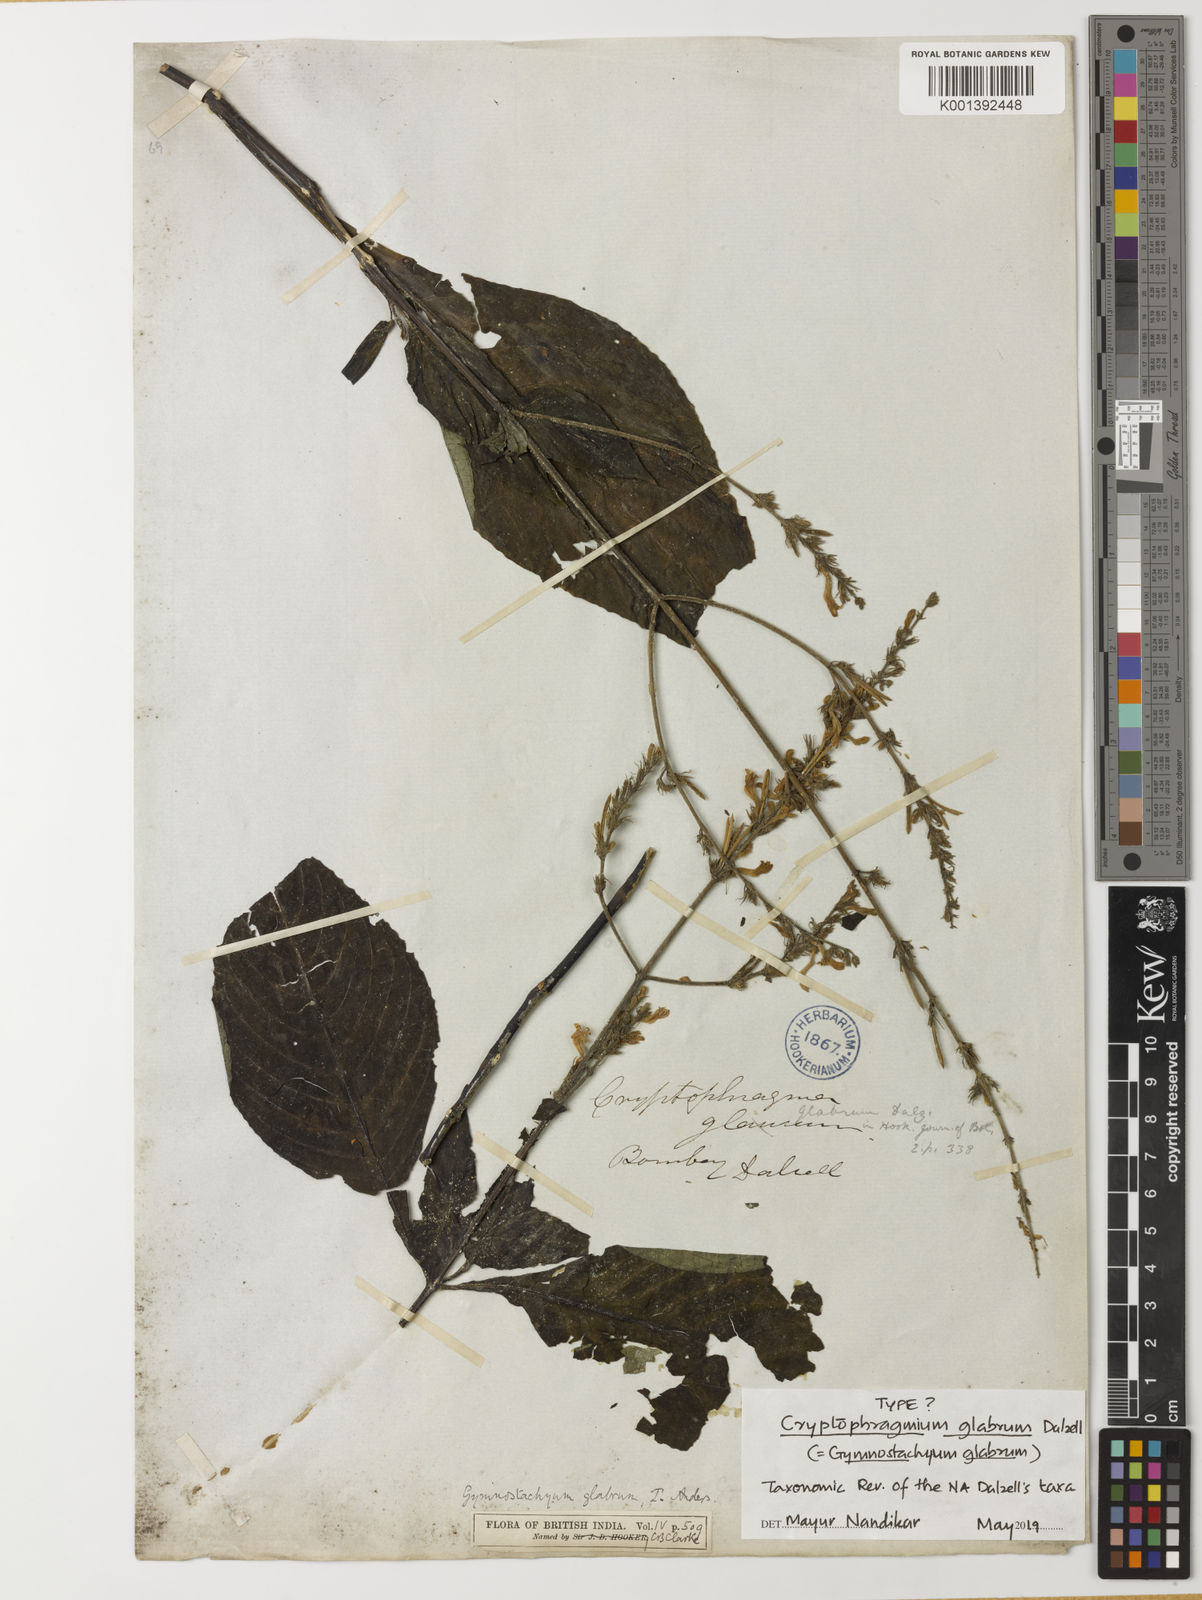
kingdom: Plantae
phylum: Tracheophyta
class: Magnoliopsida
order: Lamiales
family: Acanthaceae
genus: Gymnostachyum
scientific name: Gymnostachyum glabrum
